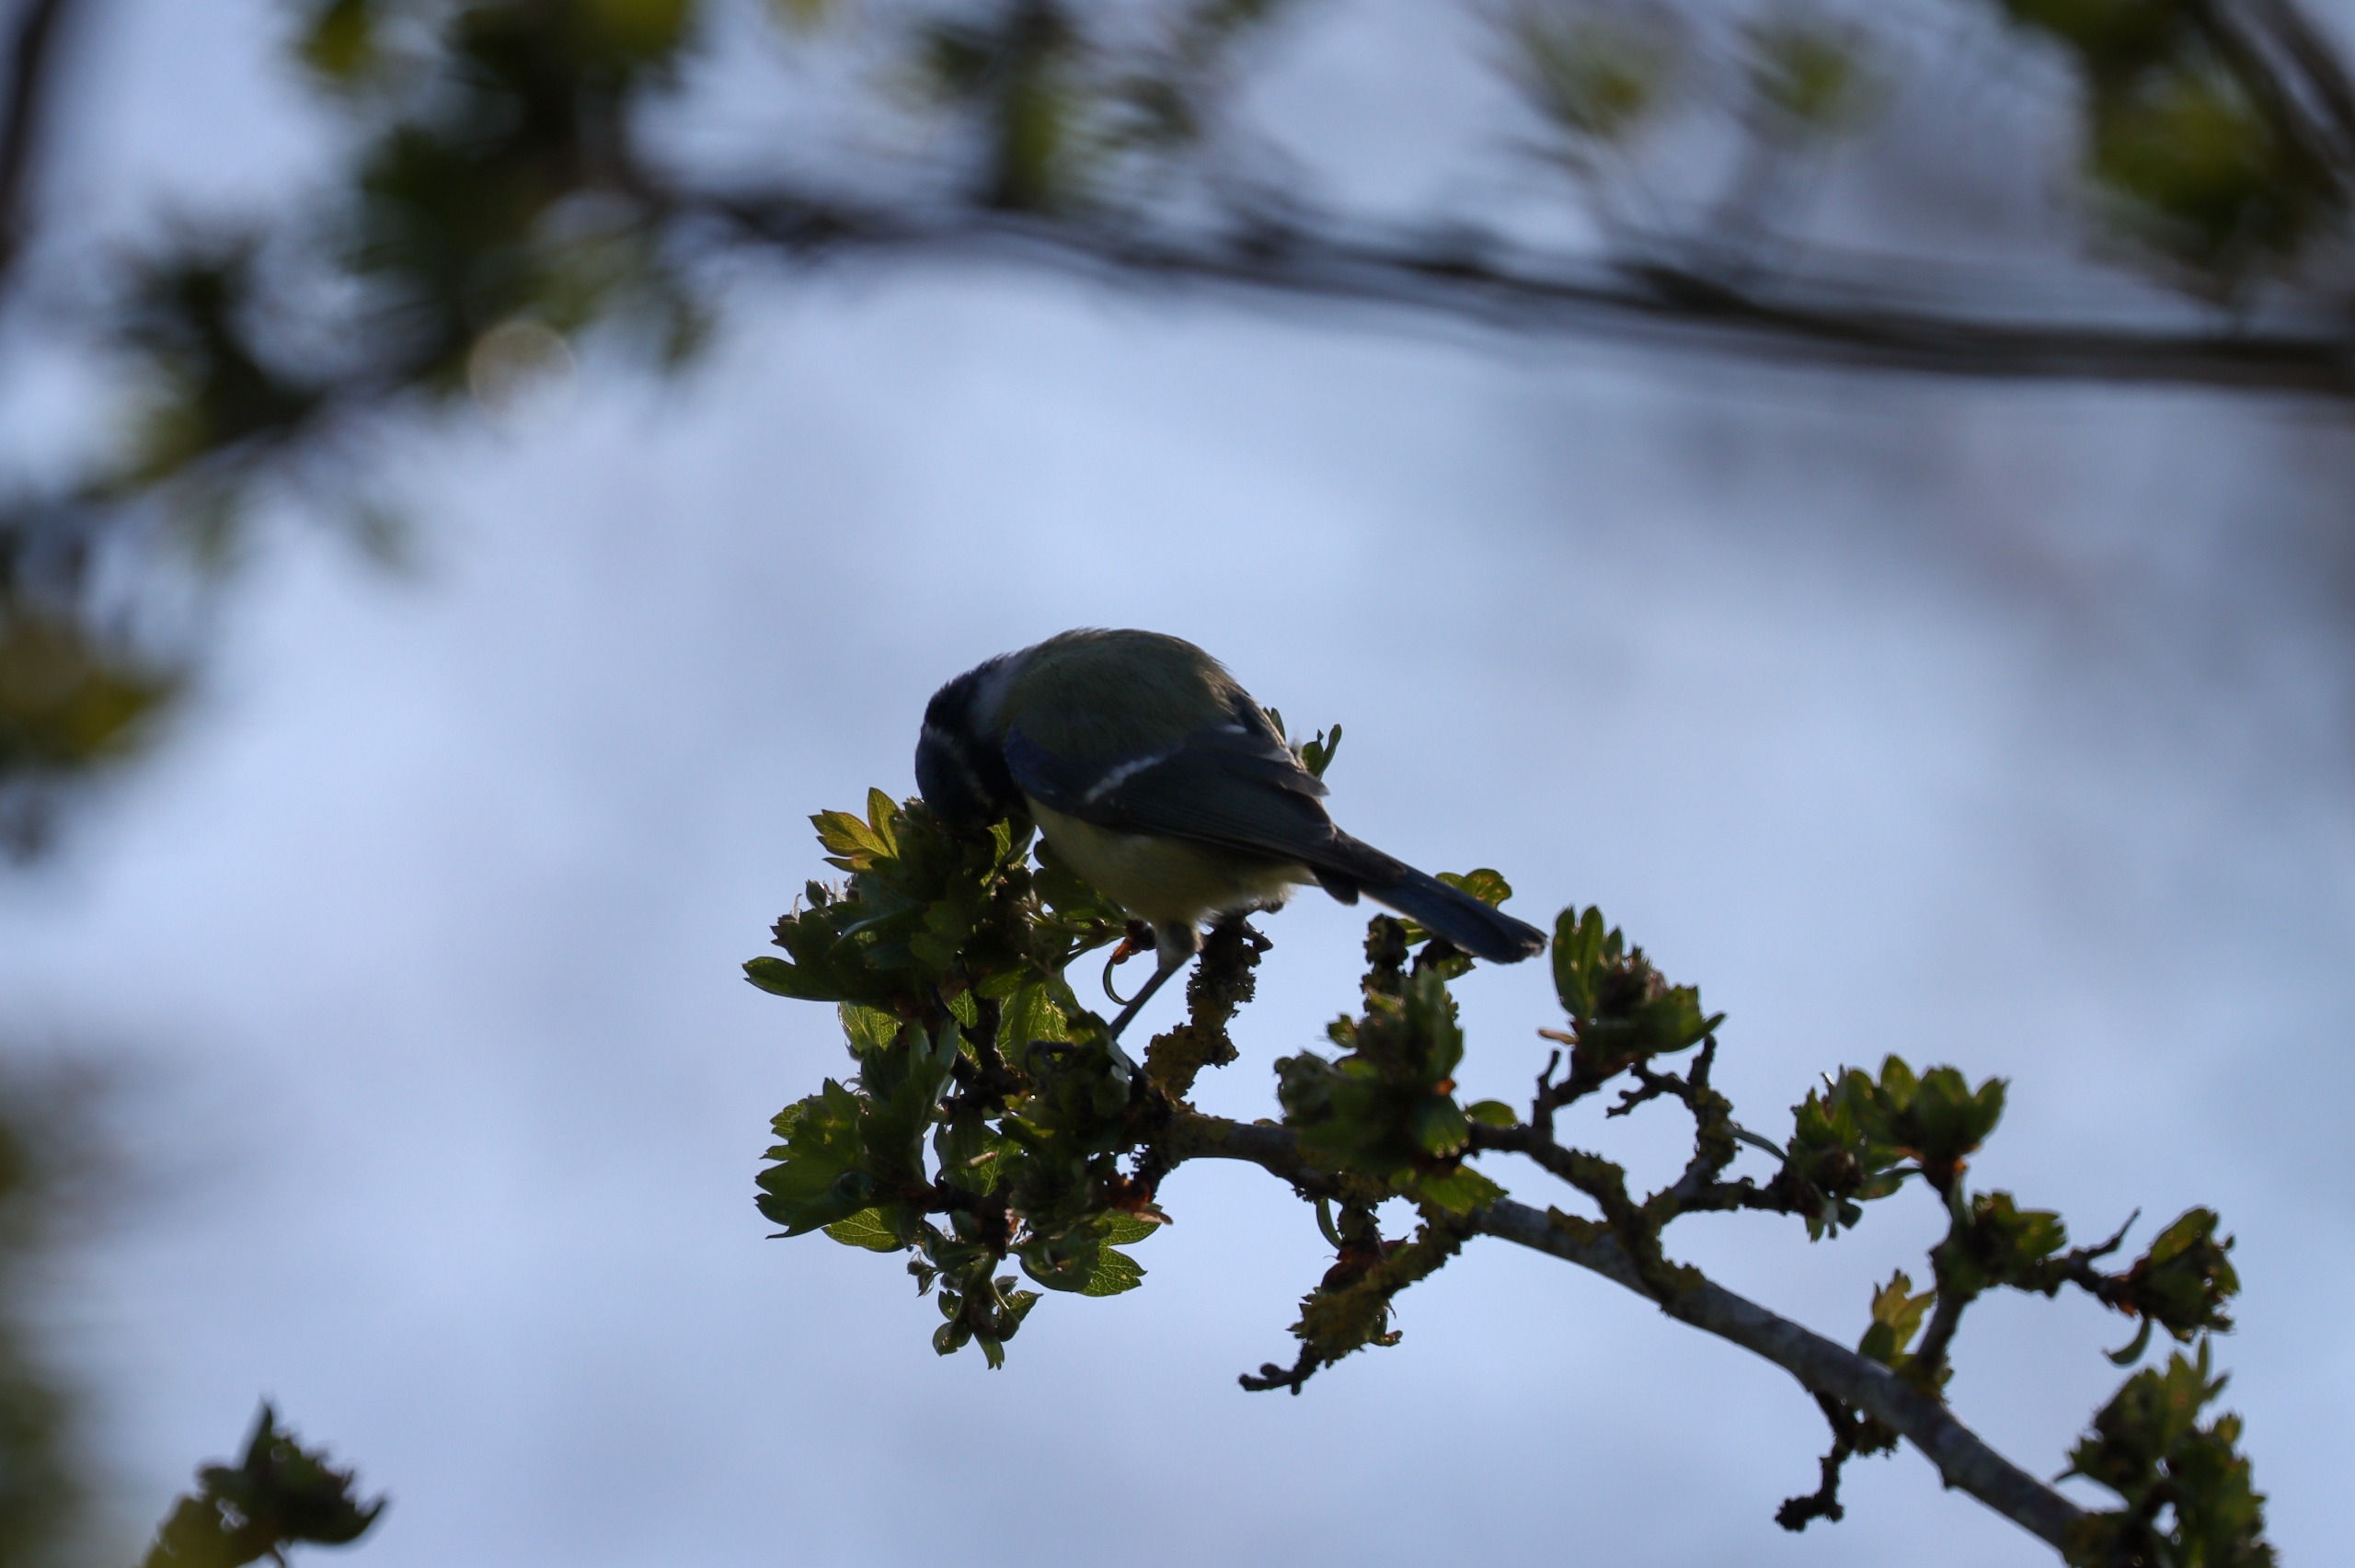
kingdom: Animalia
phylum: Chordata
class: Aves
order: Passeriformes
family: Paridae
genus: Cyanistes
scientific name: Cyanistes caeruleus
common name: Blåmejse
